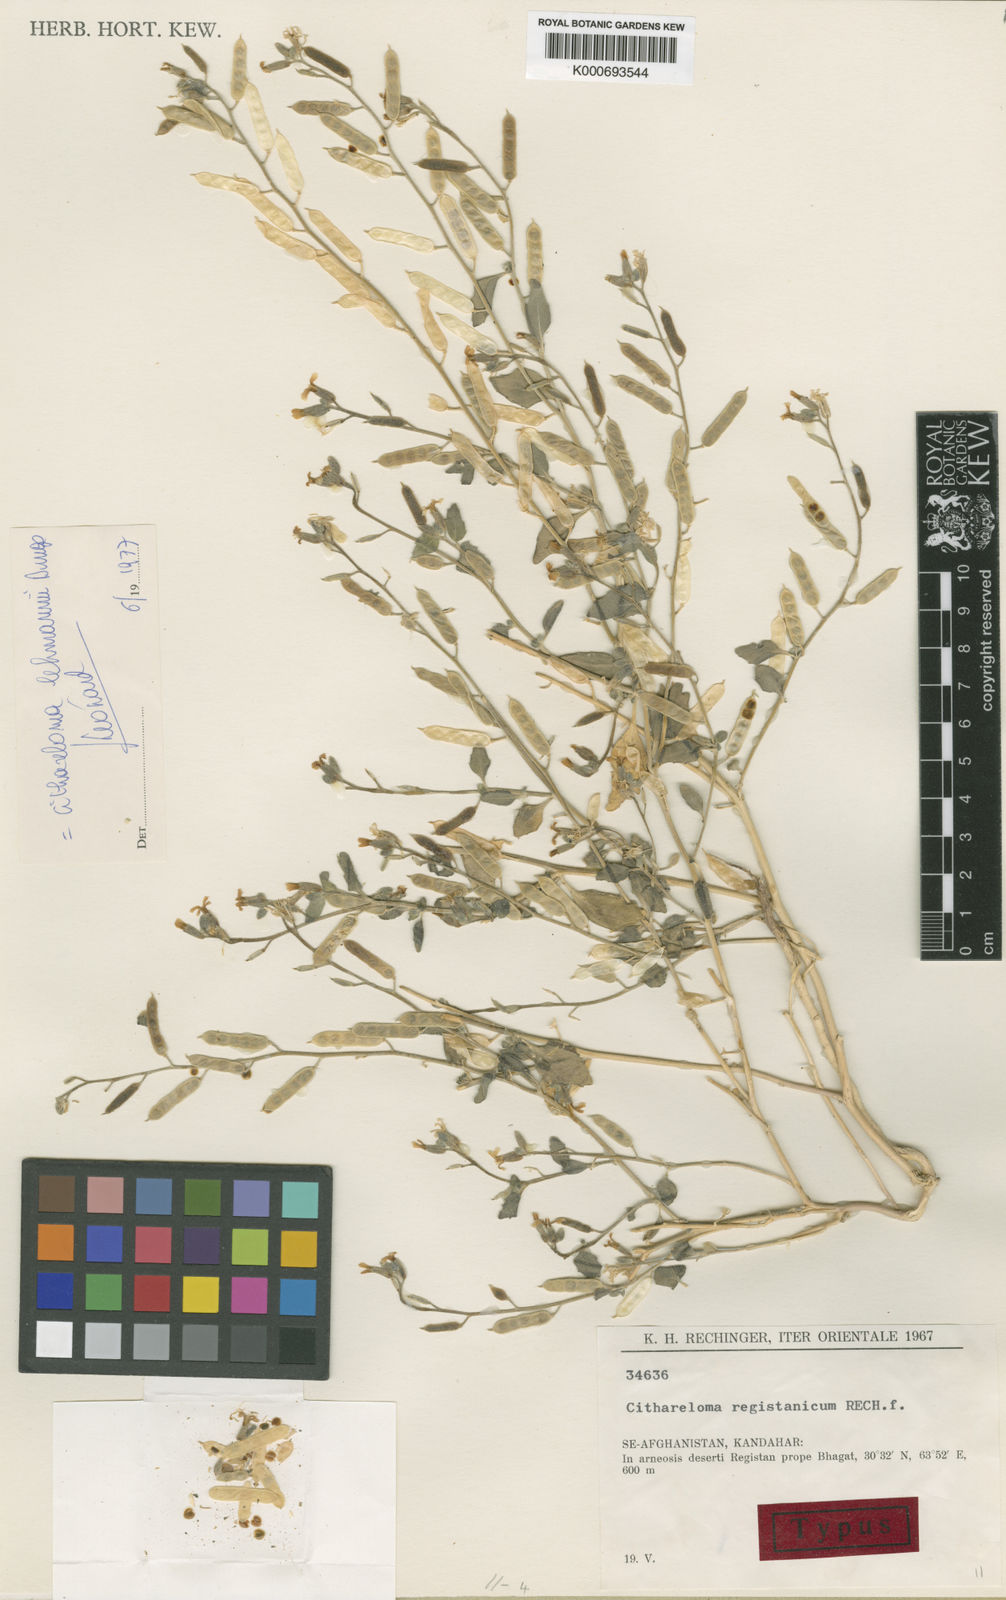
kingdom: Plantae
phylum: Tracheophyta
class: Magnoliopsida
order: Brassicales
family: Brassicaceae
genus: Cithareloma
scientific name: Cithareloma lehmannii
